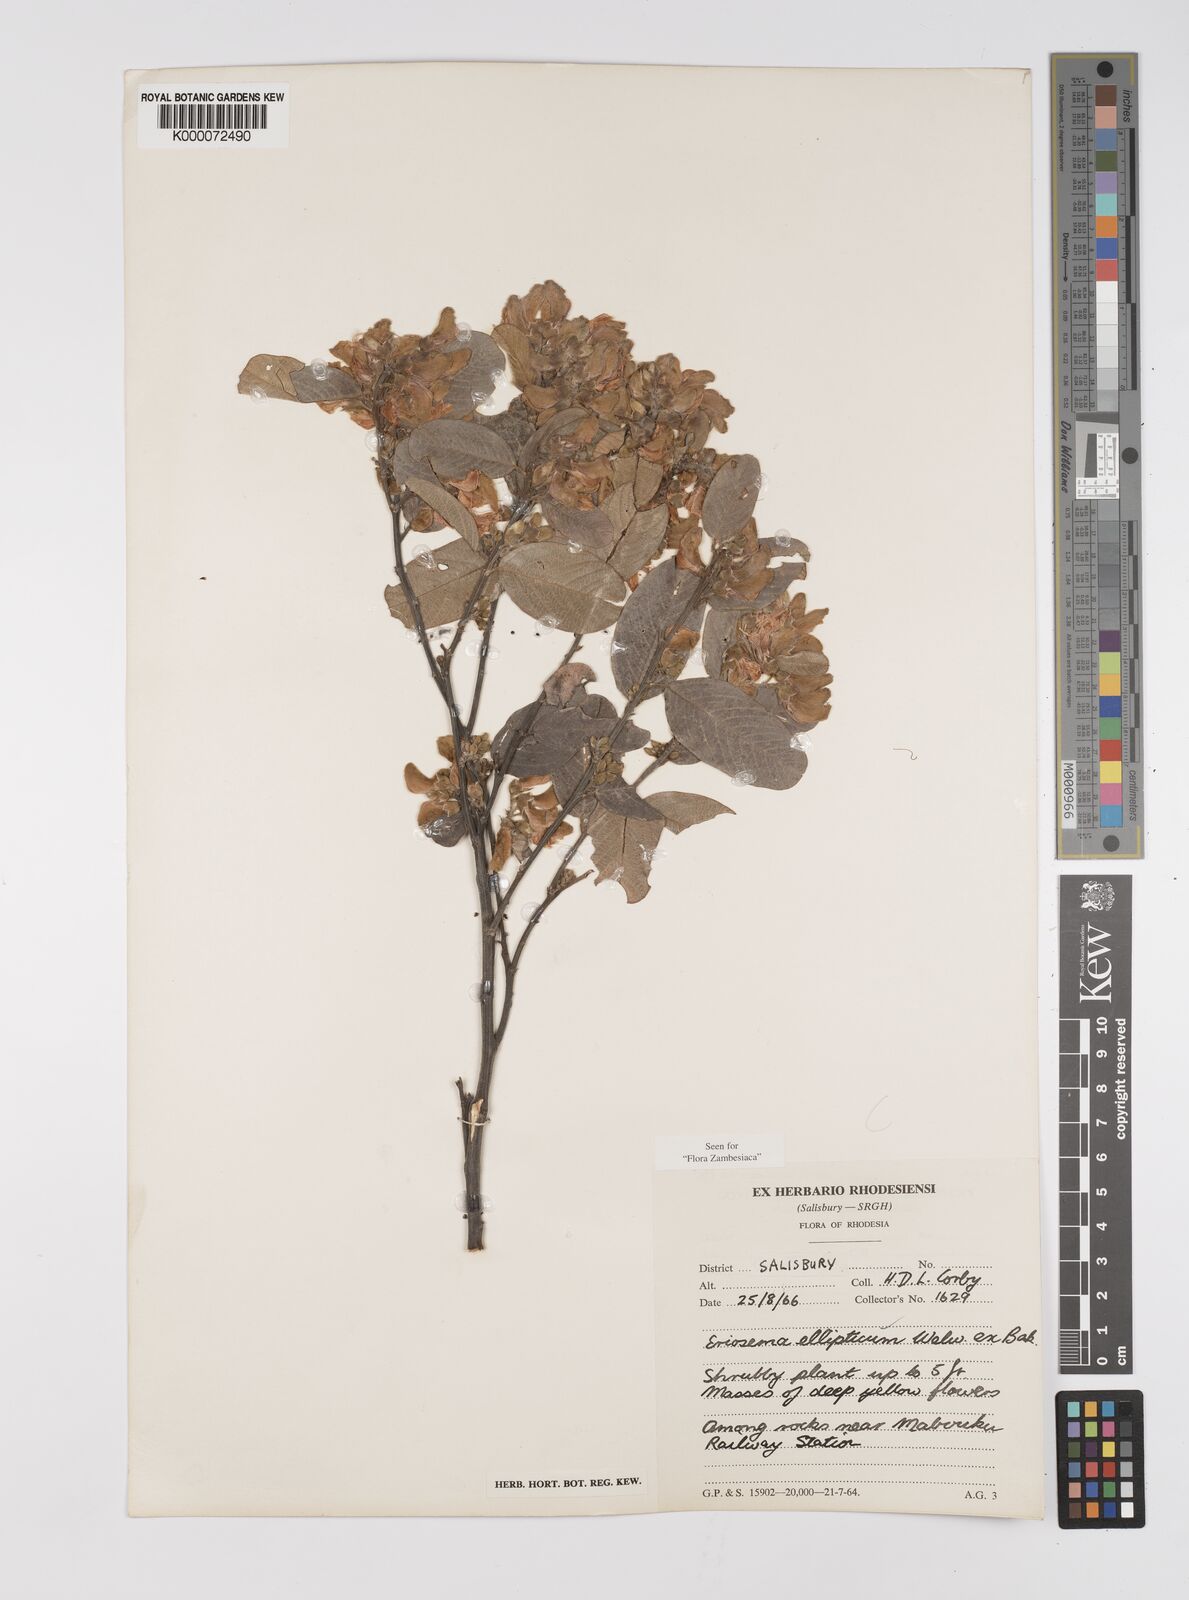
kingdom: Plantae
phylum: Tracheophyta
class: Magnoliopsida
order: Fabales
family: Fabaceae
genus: Eriosema
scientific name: Eriosema ellipticum
